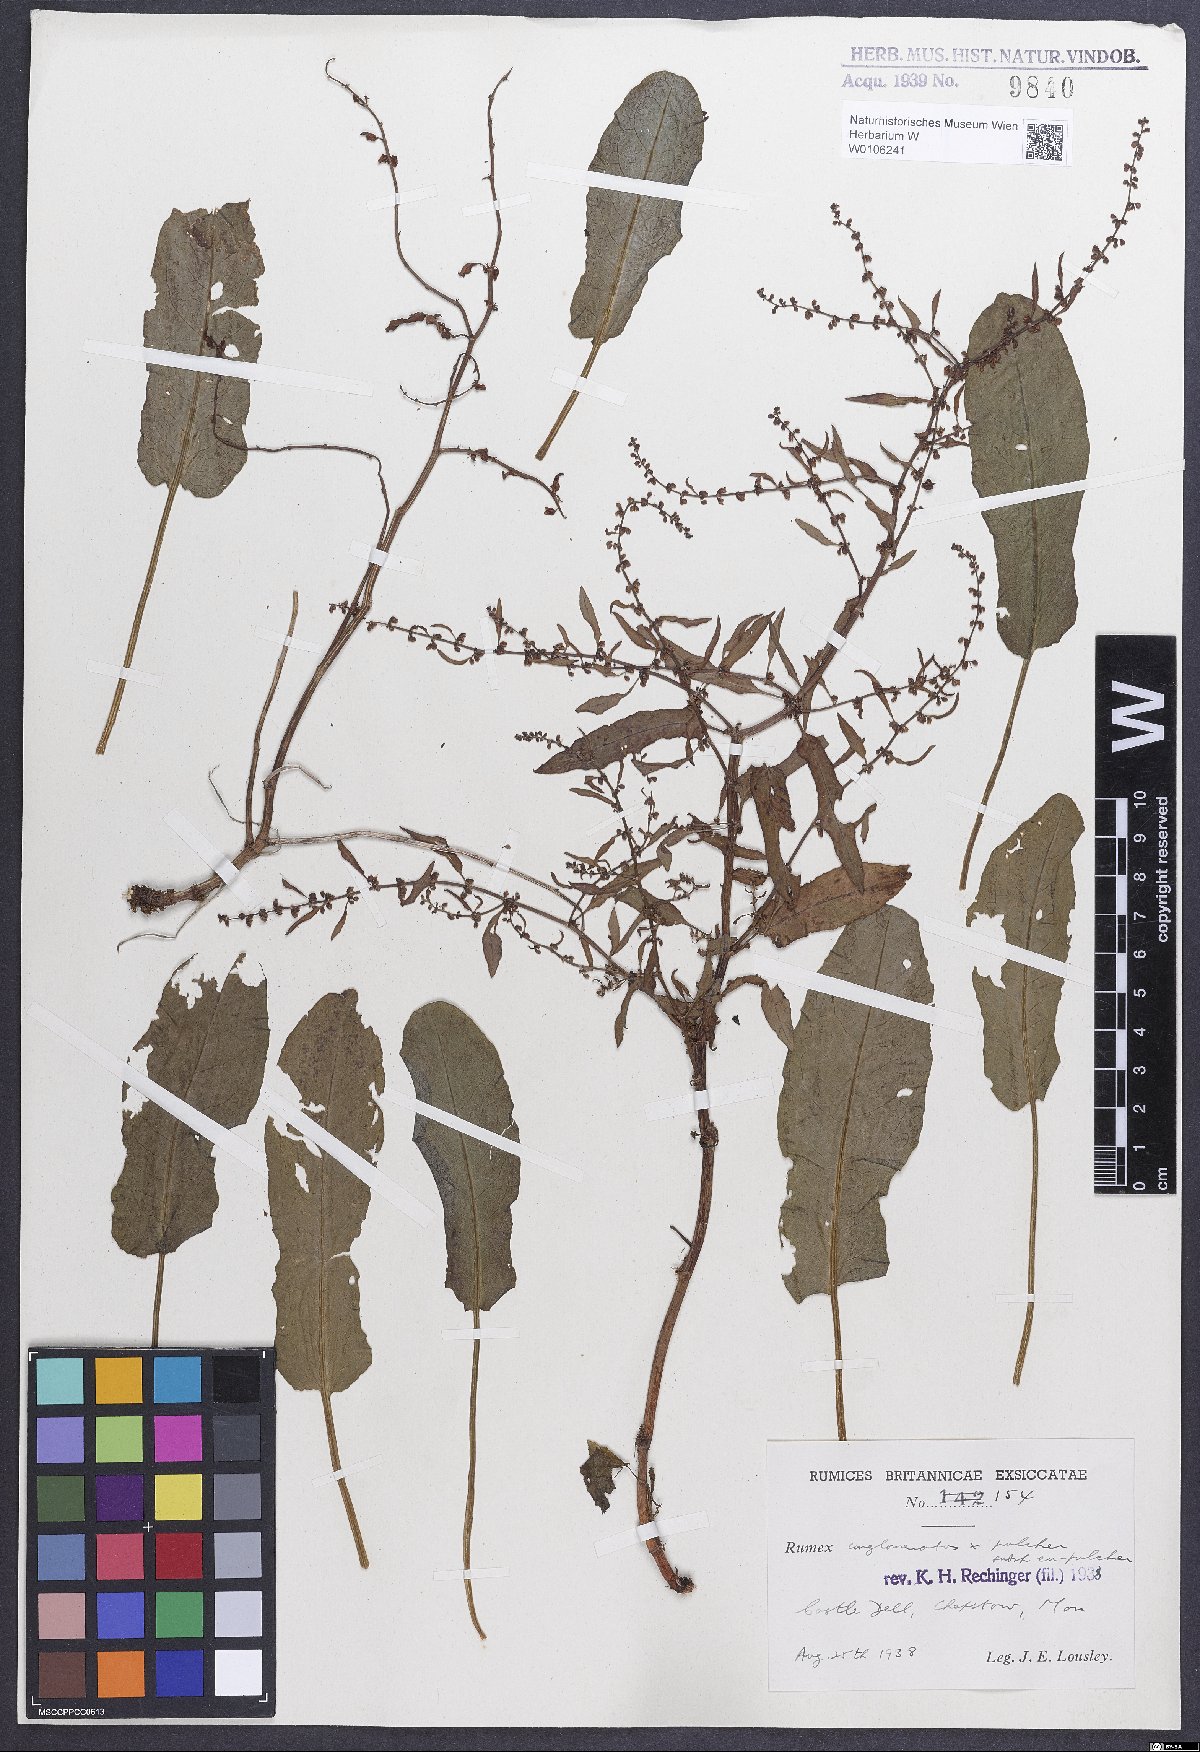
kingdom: Plantae
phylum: Tracheophyta
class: Magnoliopsida
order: Caryophyllales
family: Polygonaceae
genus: Rumex
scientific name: Rumex
